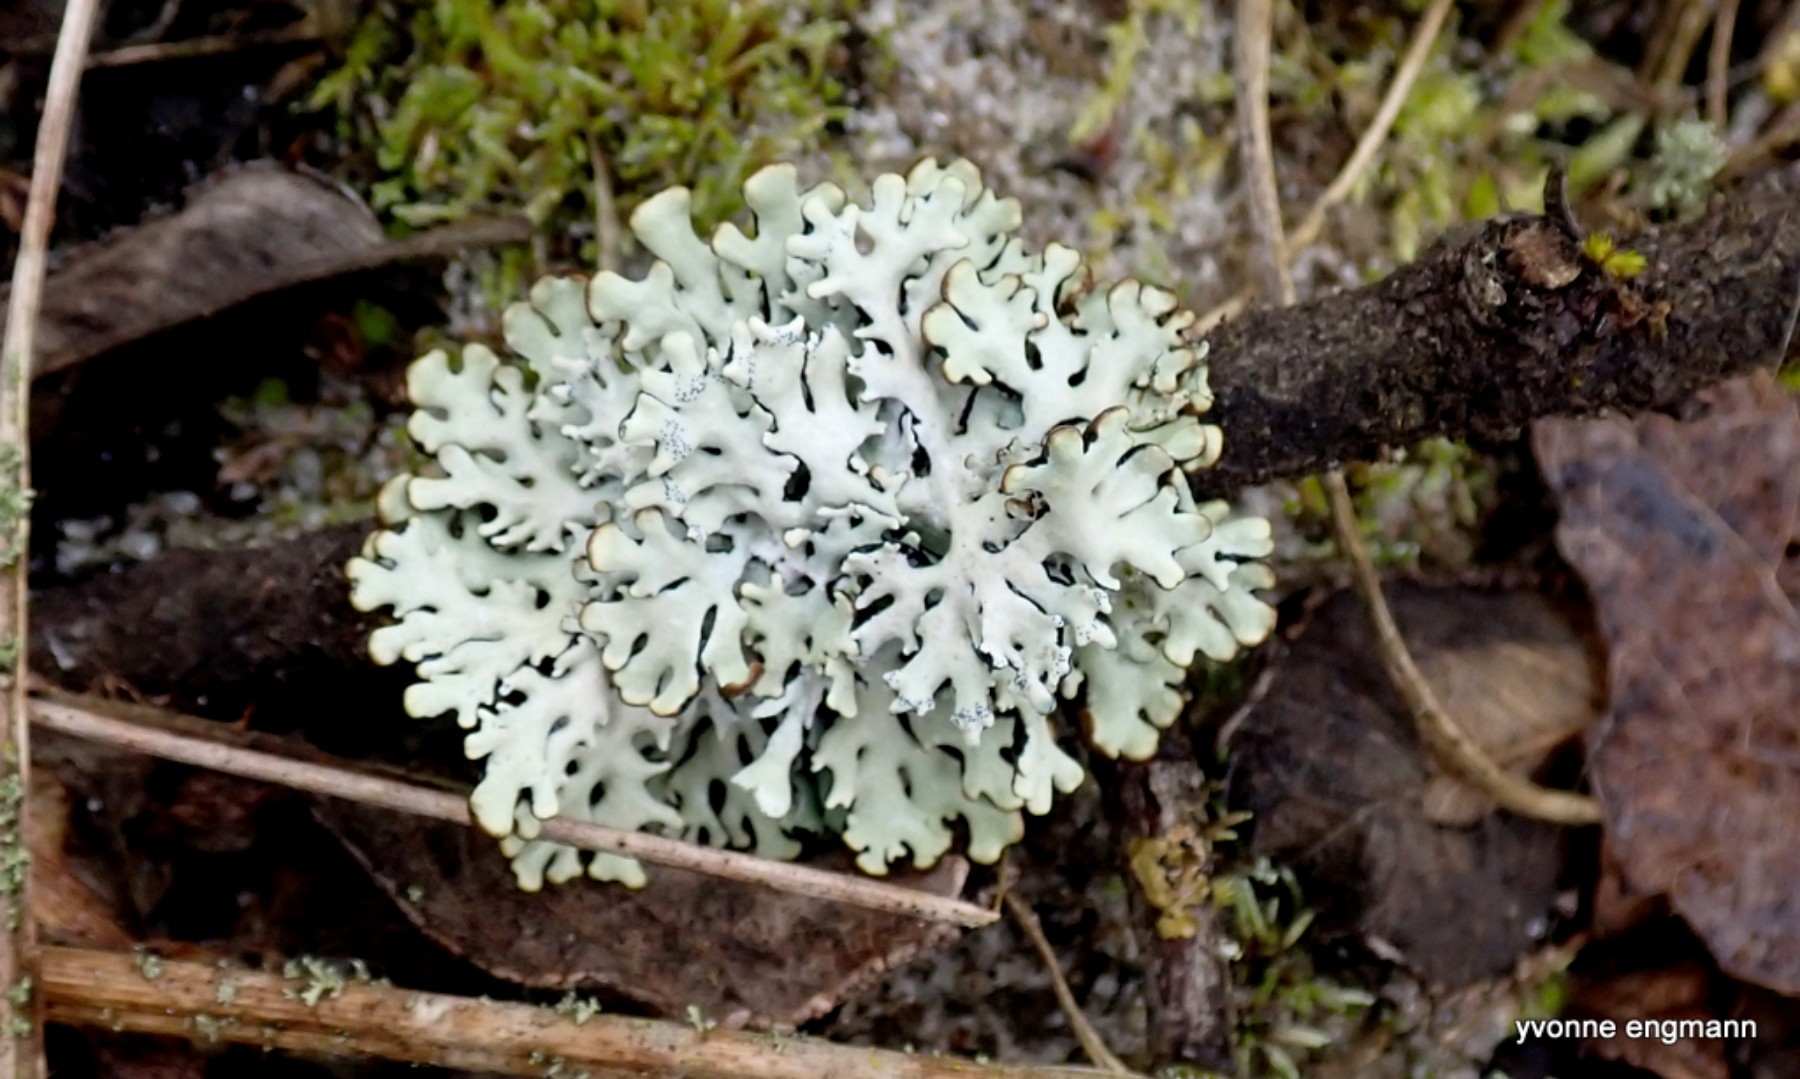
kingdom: Fungi
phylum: Ascomycota
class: Lecanoromycetes
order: Lecanorales
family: Parmeliaceae
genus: Hypogymnia
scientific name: Hypogymnia physodes
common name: almindelig kvistlav
